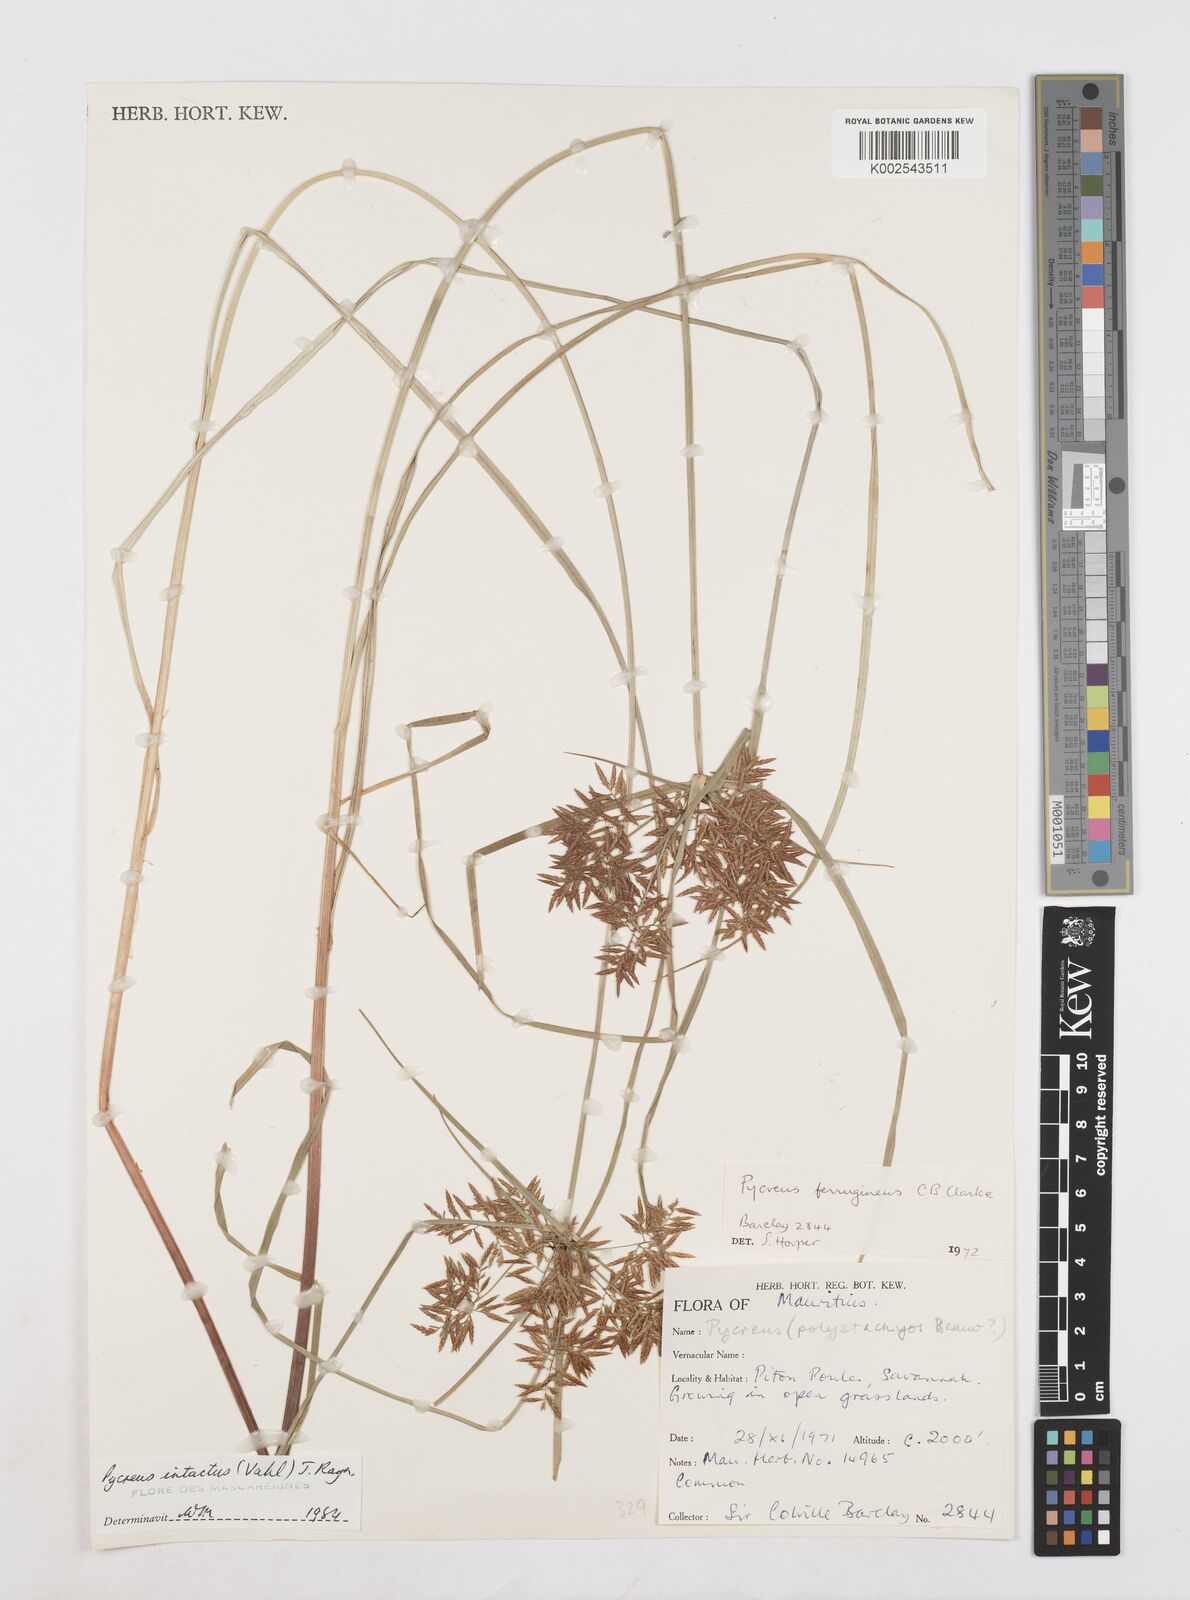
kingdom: Plantae
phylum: Tracheophyta
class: Liliopsida
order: Poales
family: Cyperaceae
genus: Cyperus
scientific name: Cyperus intactus
